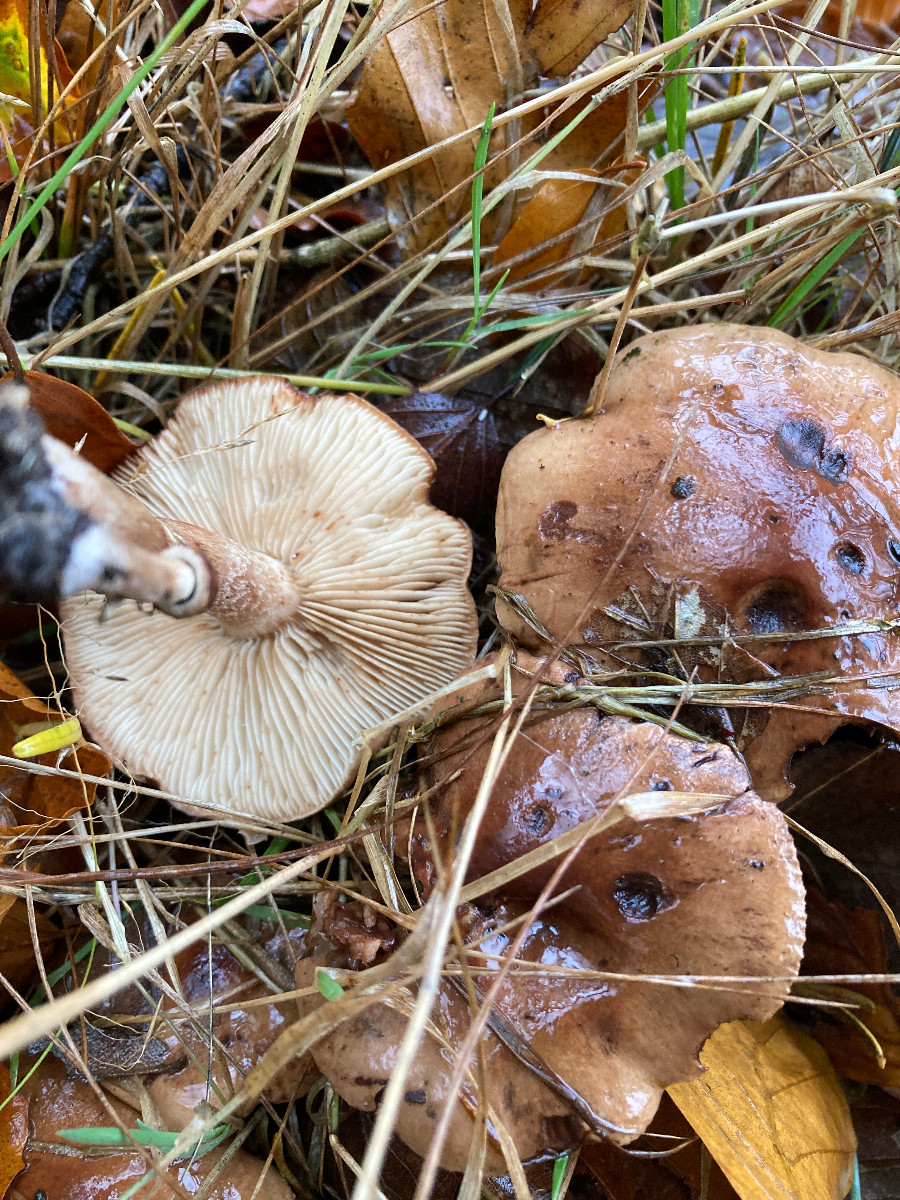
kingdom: Fungi
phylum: Basidiomycota
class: Agaricomycetes
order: Agaricales
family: Tricholomataceae
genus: Tricholoma
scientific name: Tricholoma ustale
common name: sveden ridderhat
